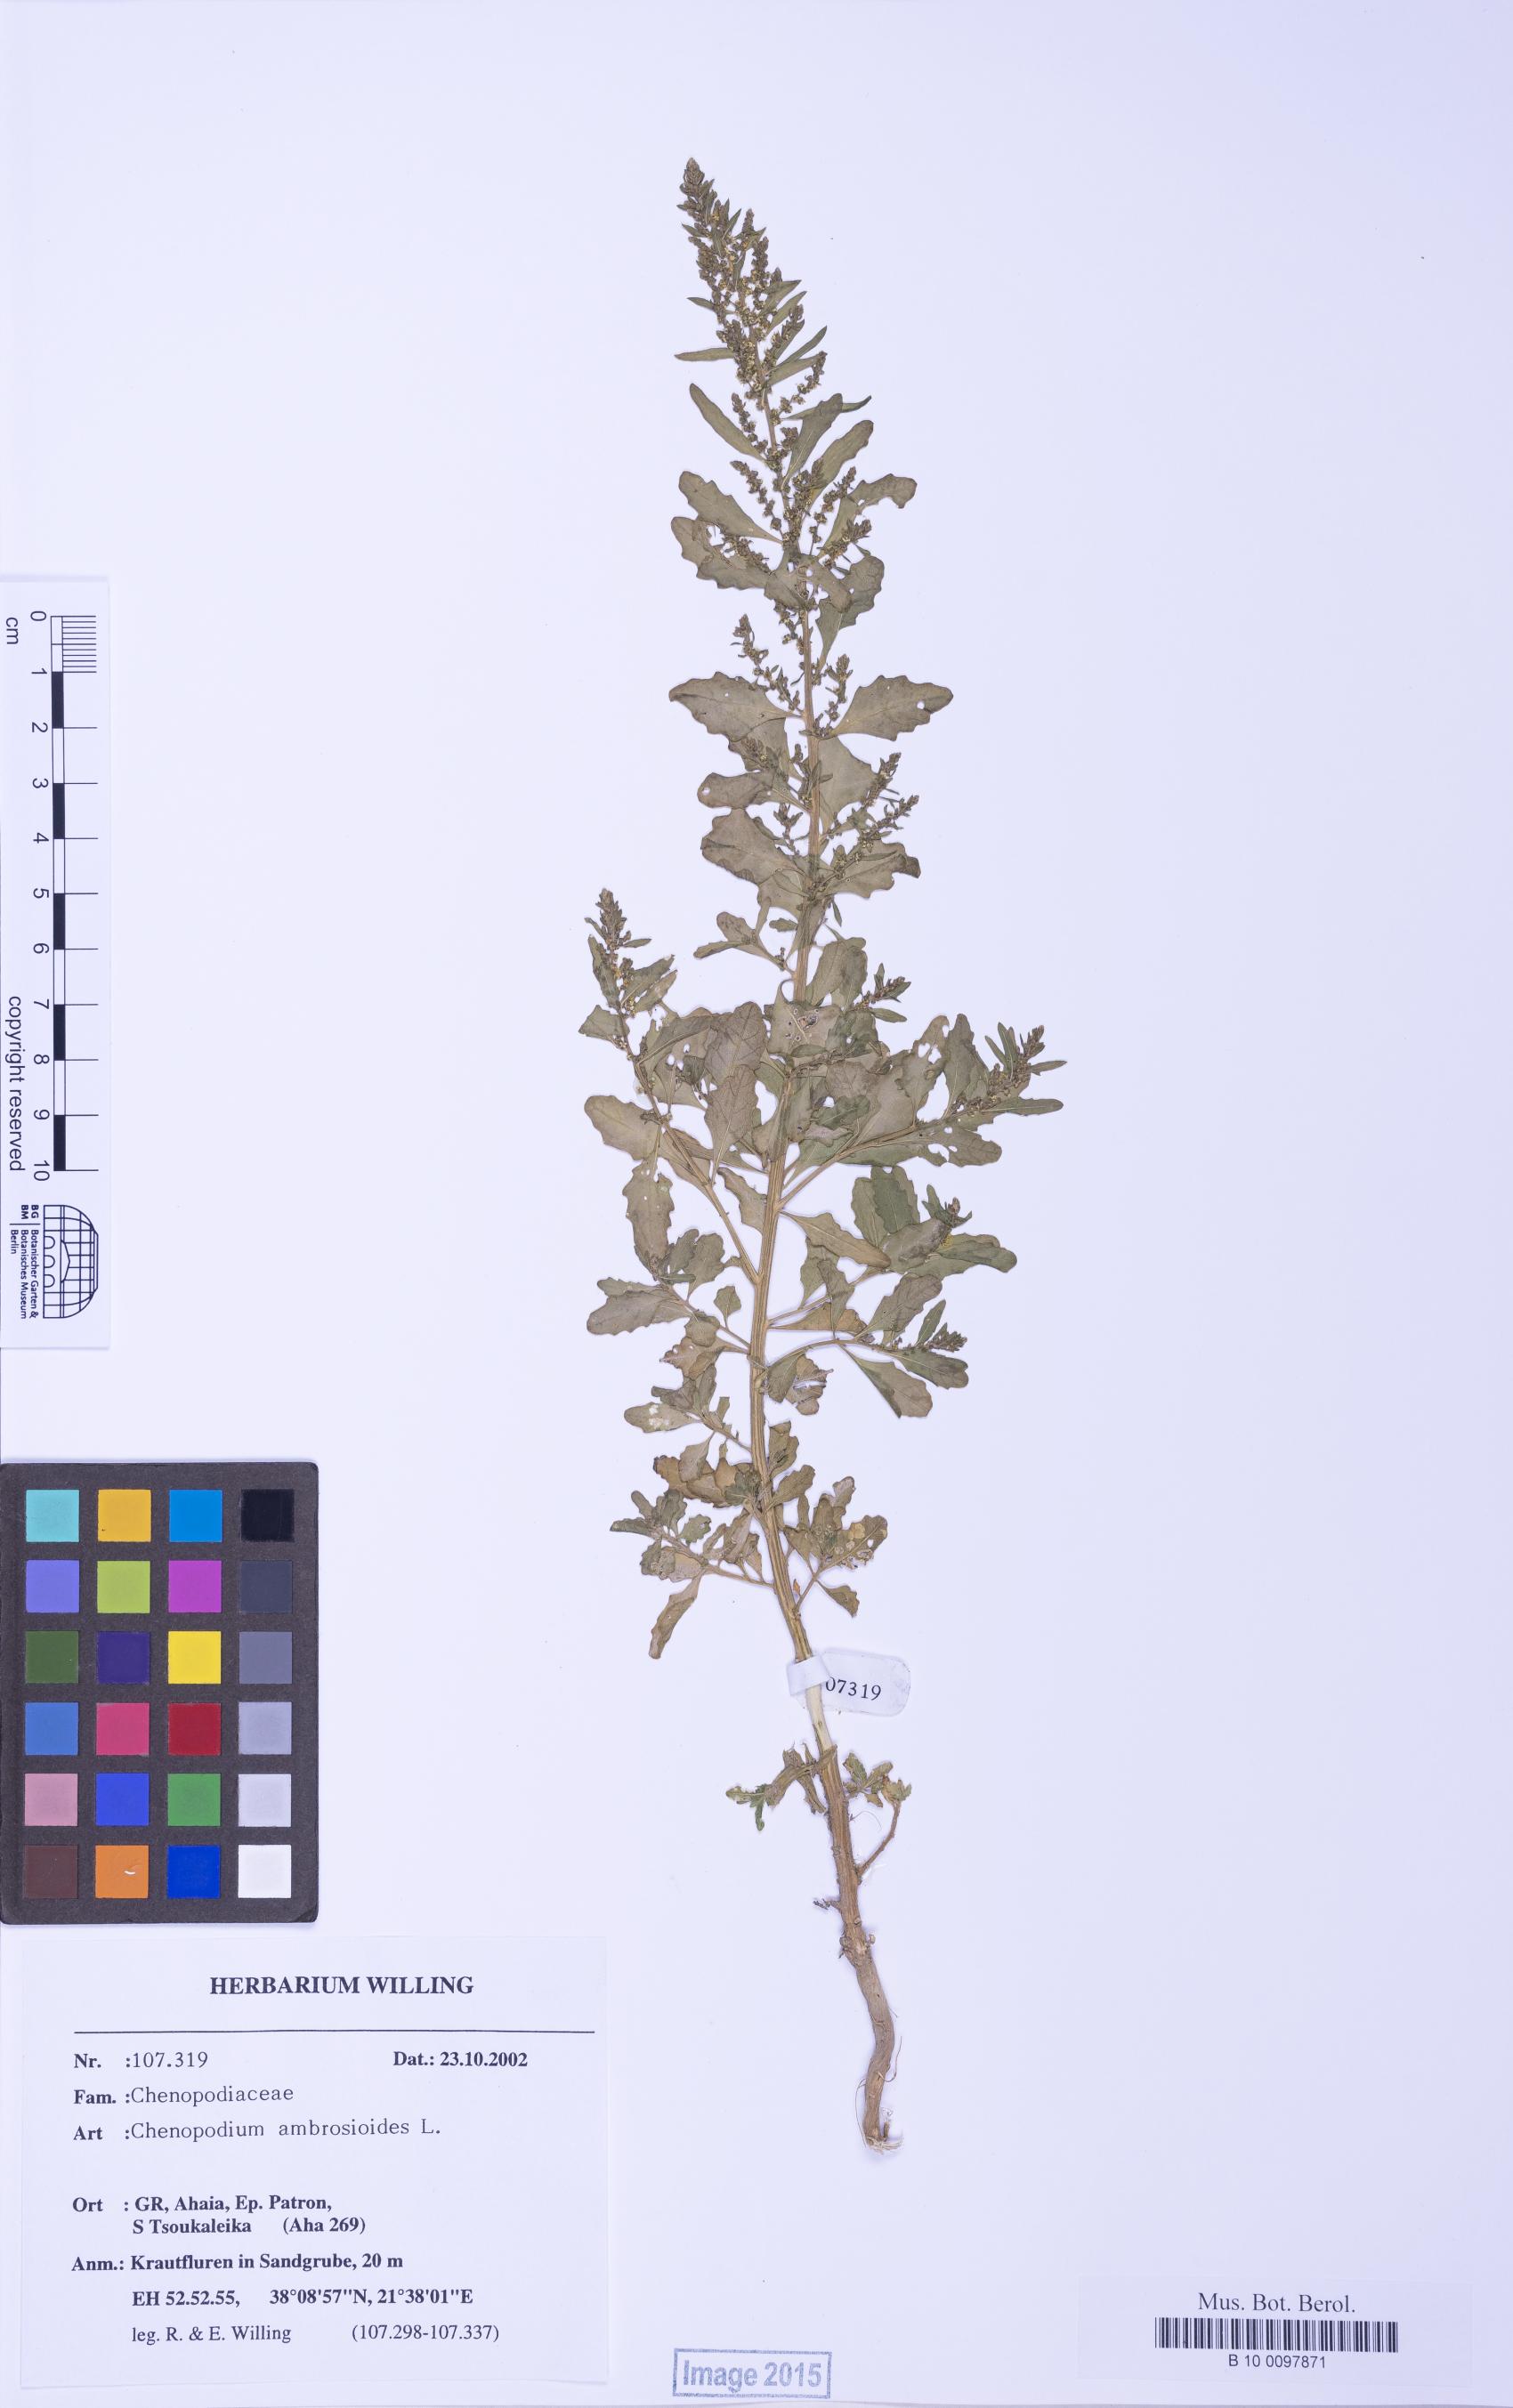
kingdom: Plantae
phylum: Tracheophyta
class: Magnoliopsida
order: Caryophyllales
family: Amaranthaceae
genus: Dysphania
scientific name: Dysphania ambrosioides
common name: Wormseed
